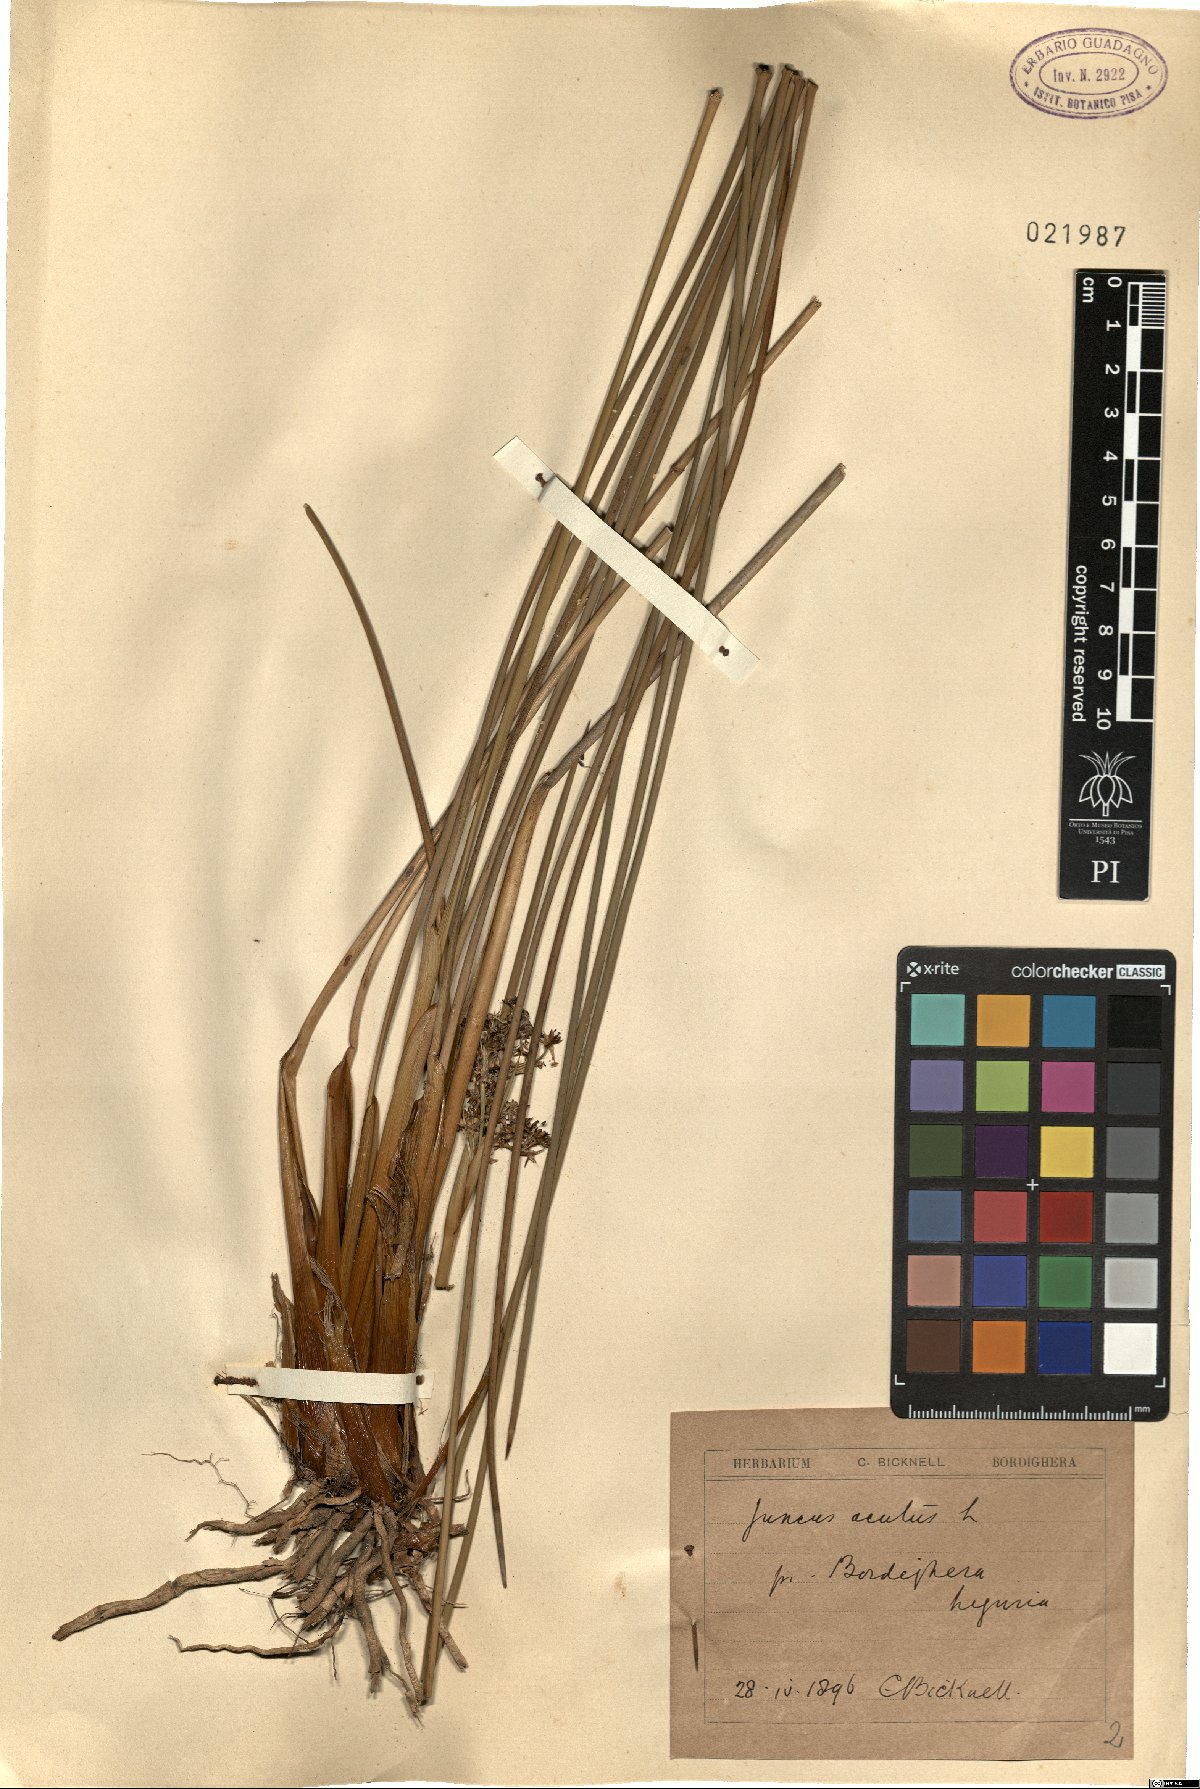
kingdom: Plantae
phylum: Tracheophyta
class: Liliopsida
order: Poales
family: Juncaceae
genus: Juncus
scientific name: Juncus acutus
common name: Sharp rush
